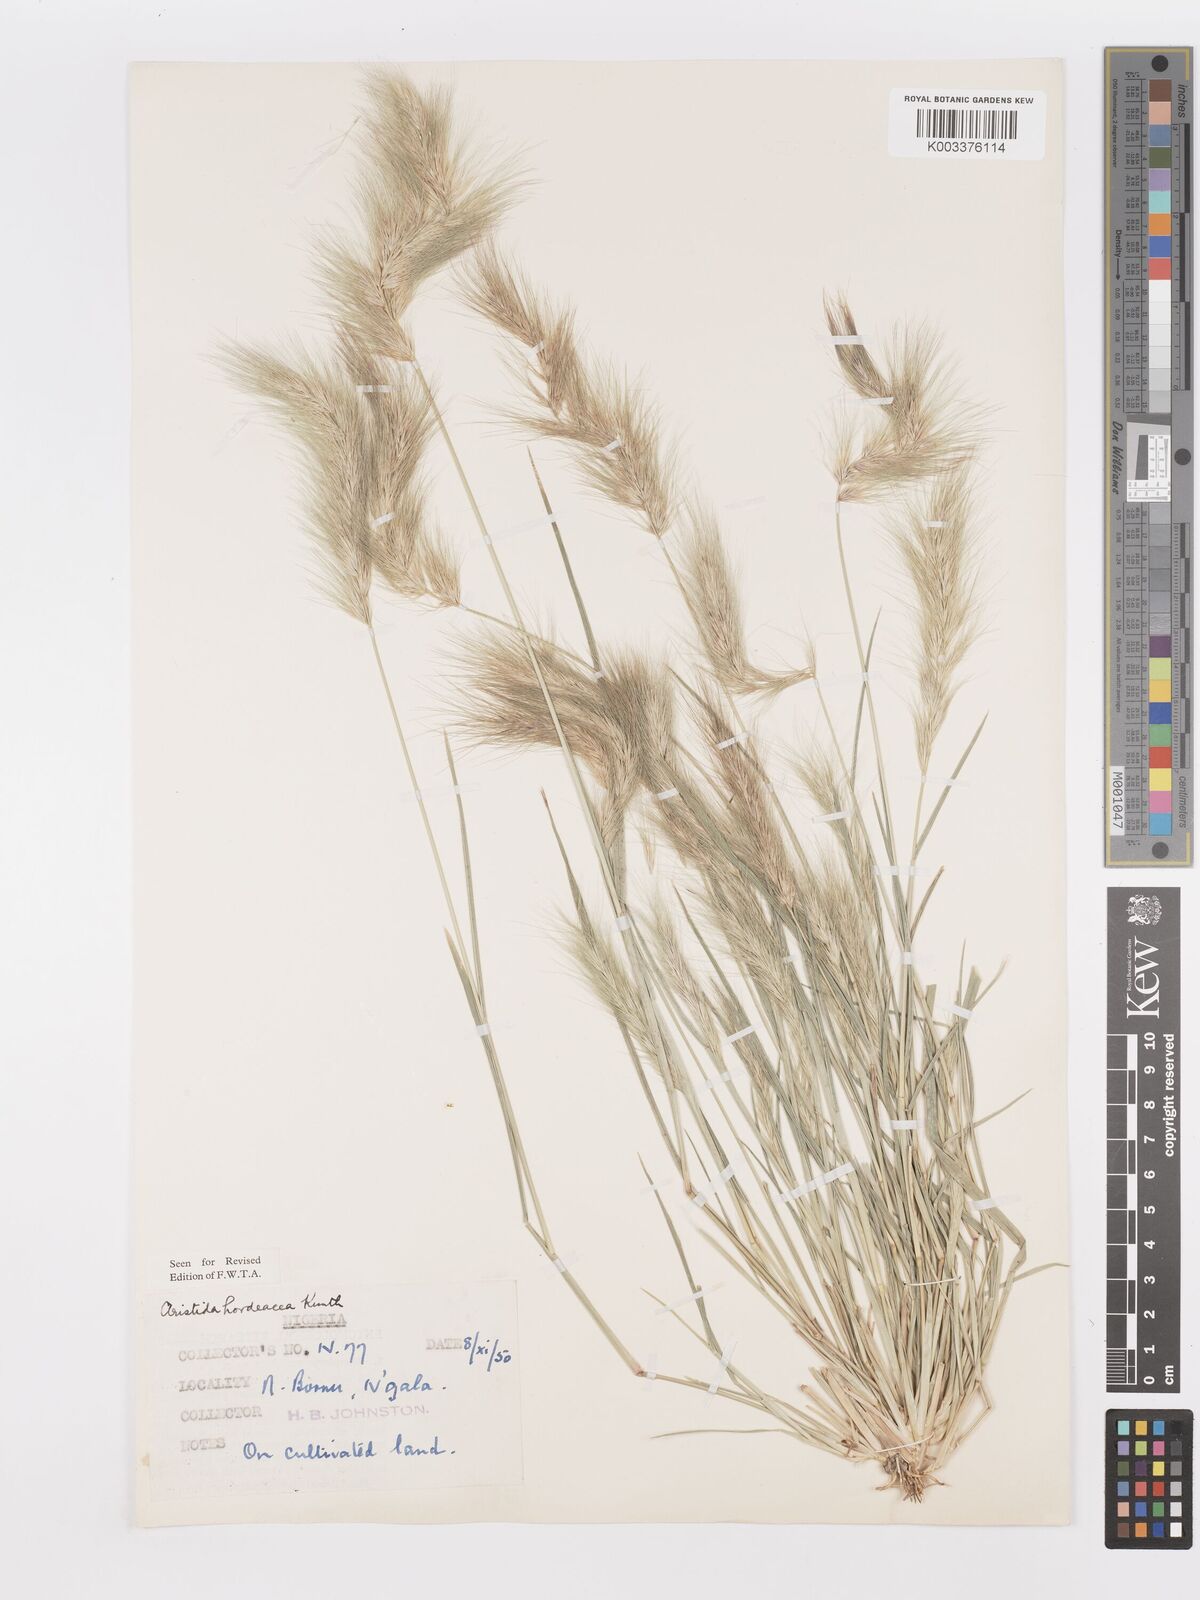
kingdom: Plantae
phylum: Tracheophyta
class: Liliopsida
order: Poales
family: Poaceae
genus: Aristida
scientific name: Aristida hordeacea
